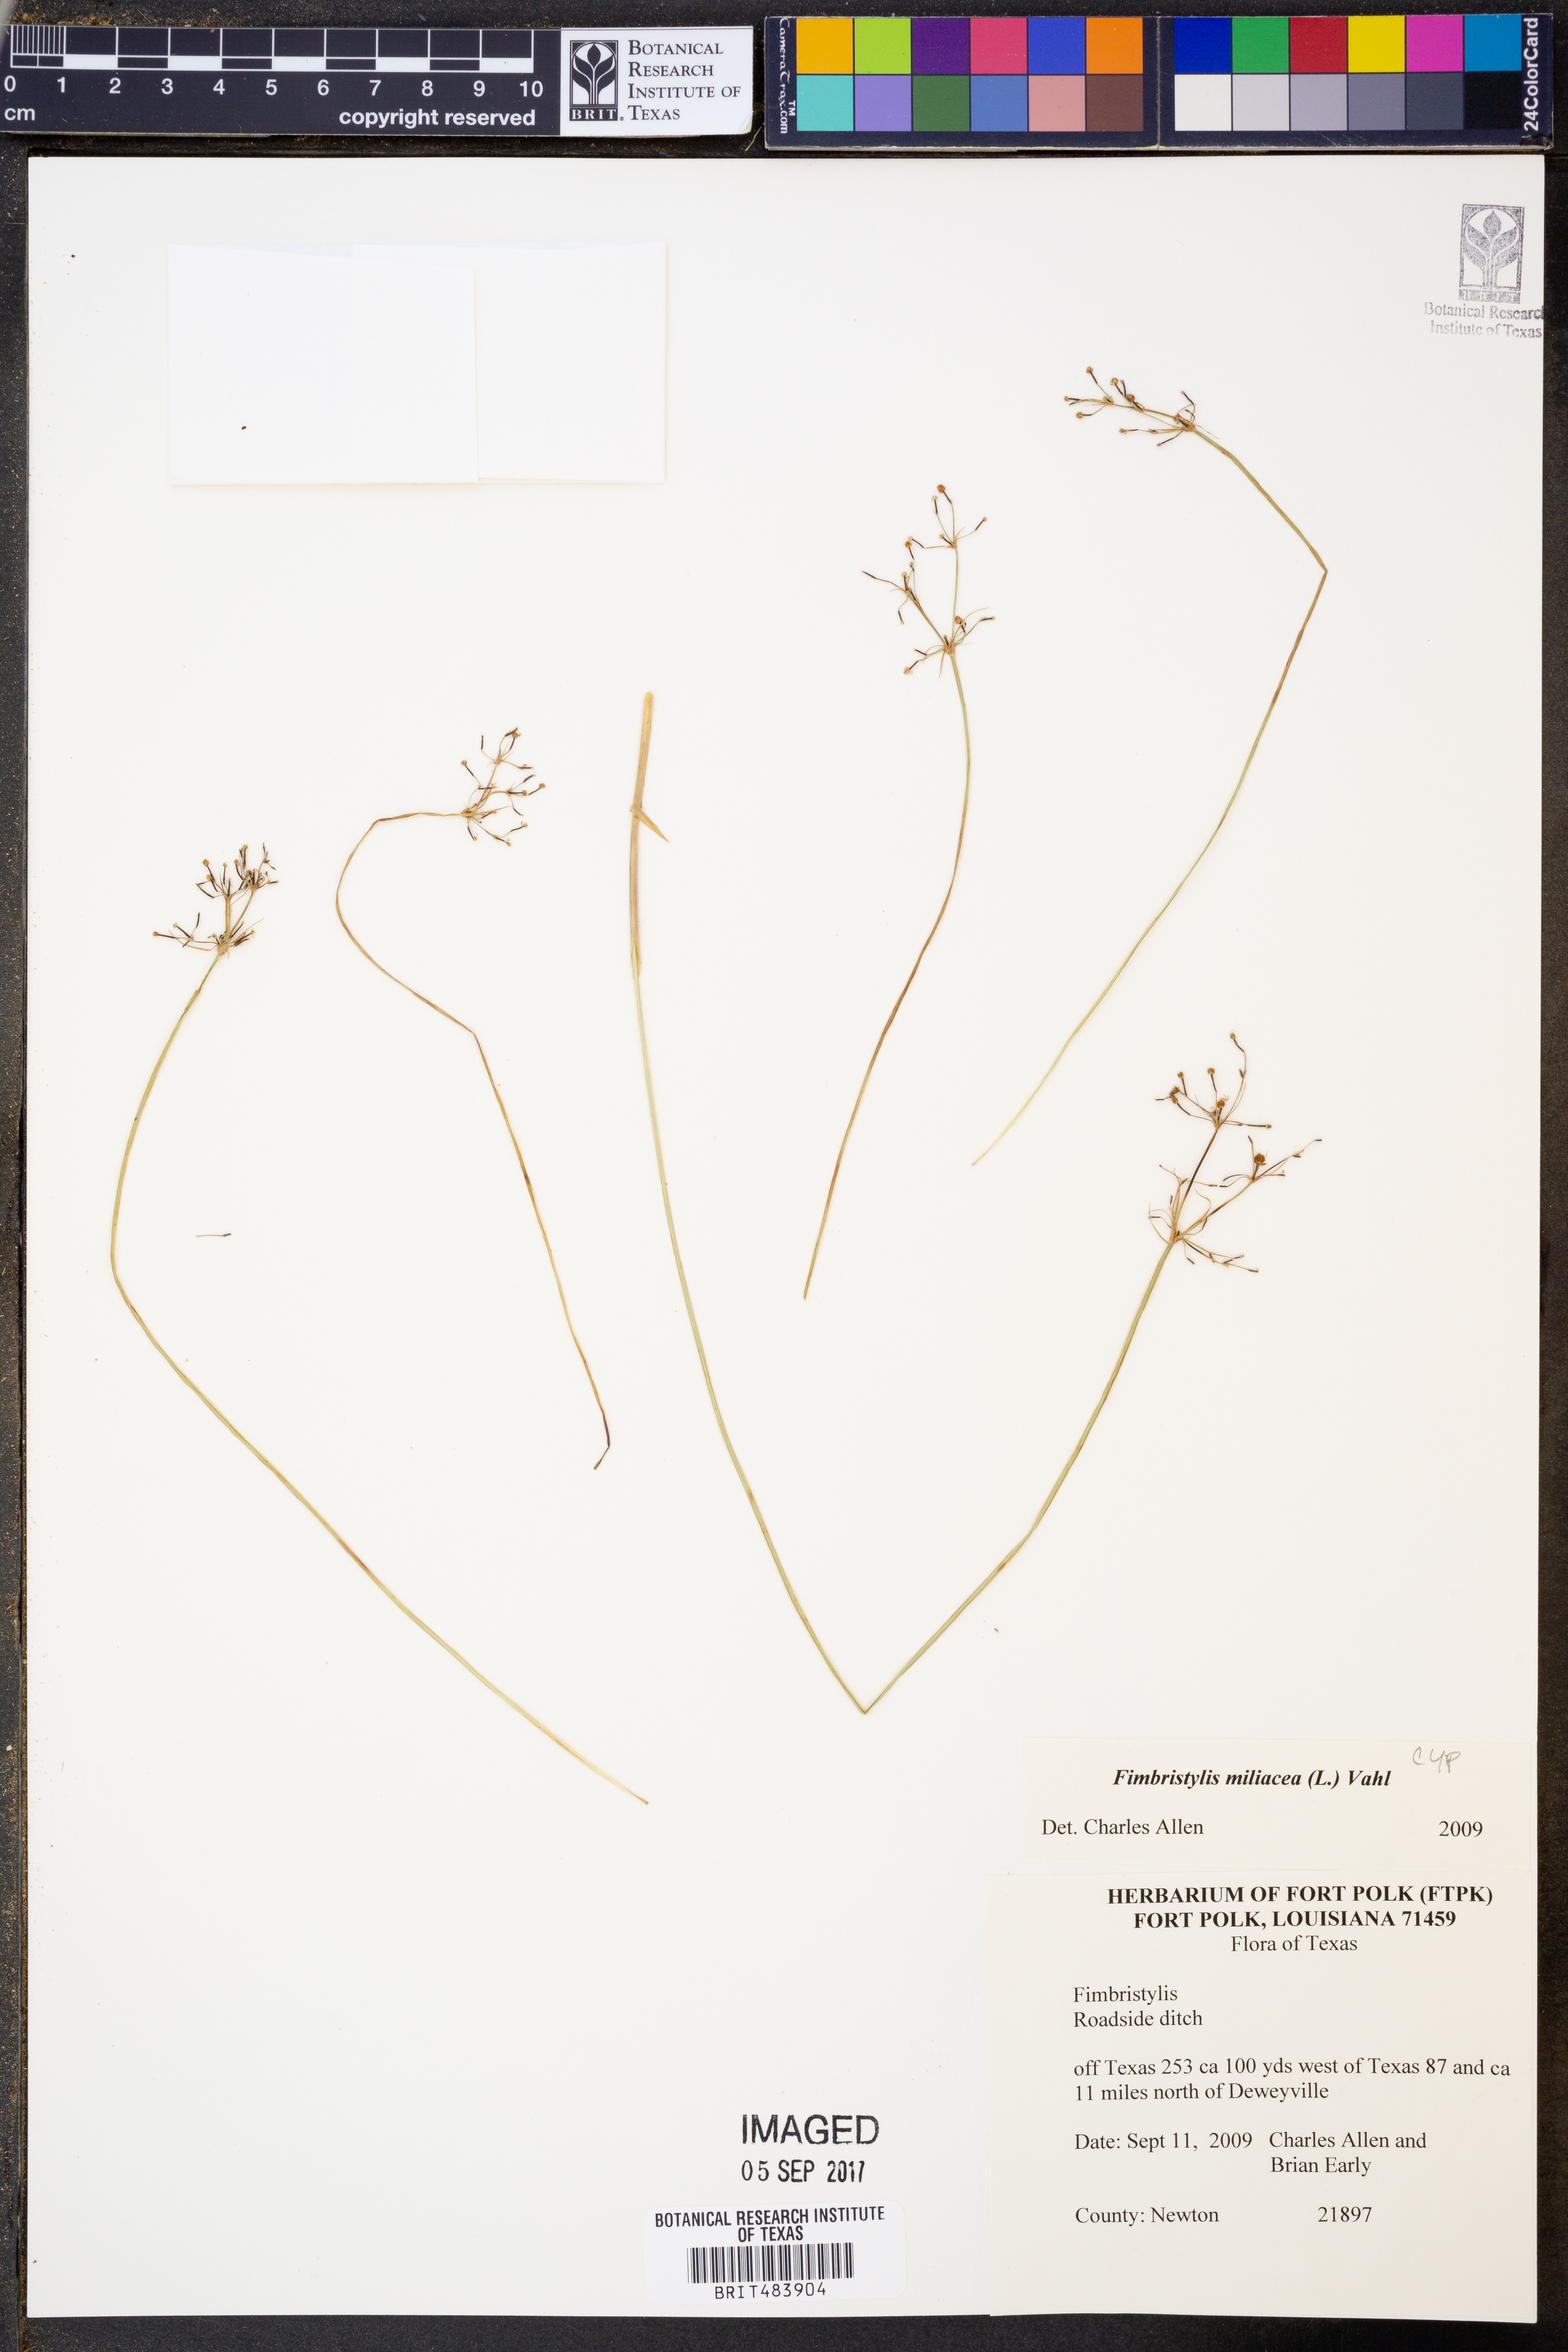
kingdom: Plantae
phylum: Tracheophyta
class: Liliopsida
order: Poales
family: Cyperaceae
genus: Fimbristylis
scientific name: Fimbristylis quinquangularis
